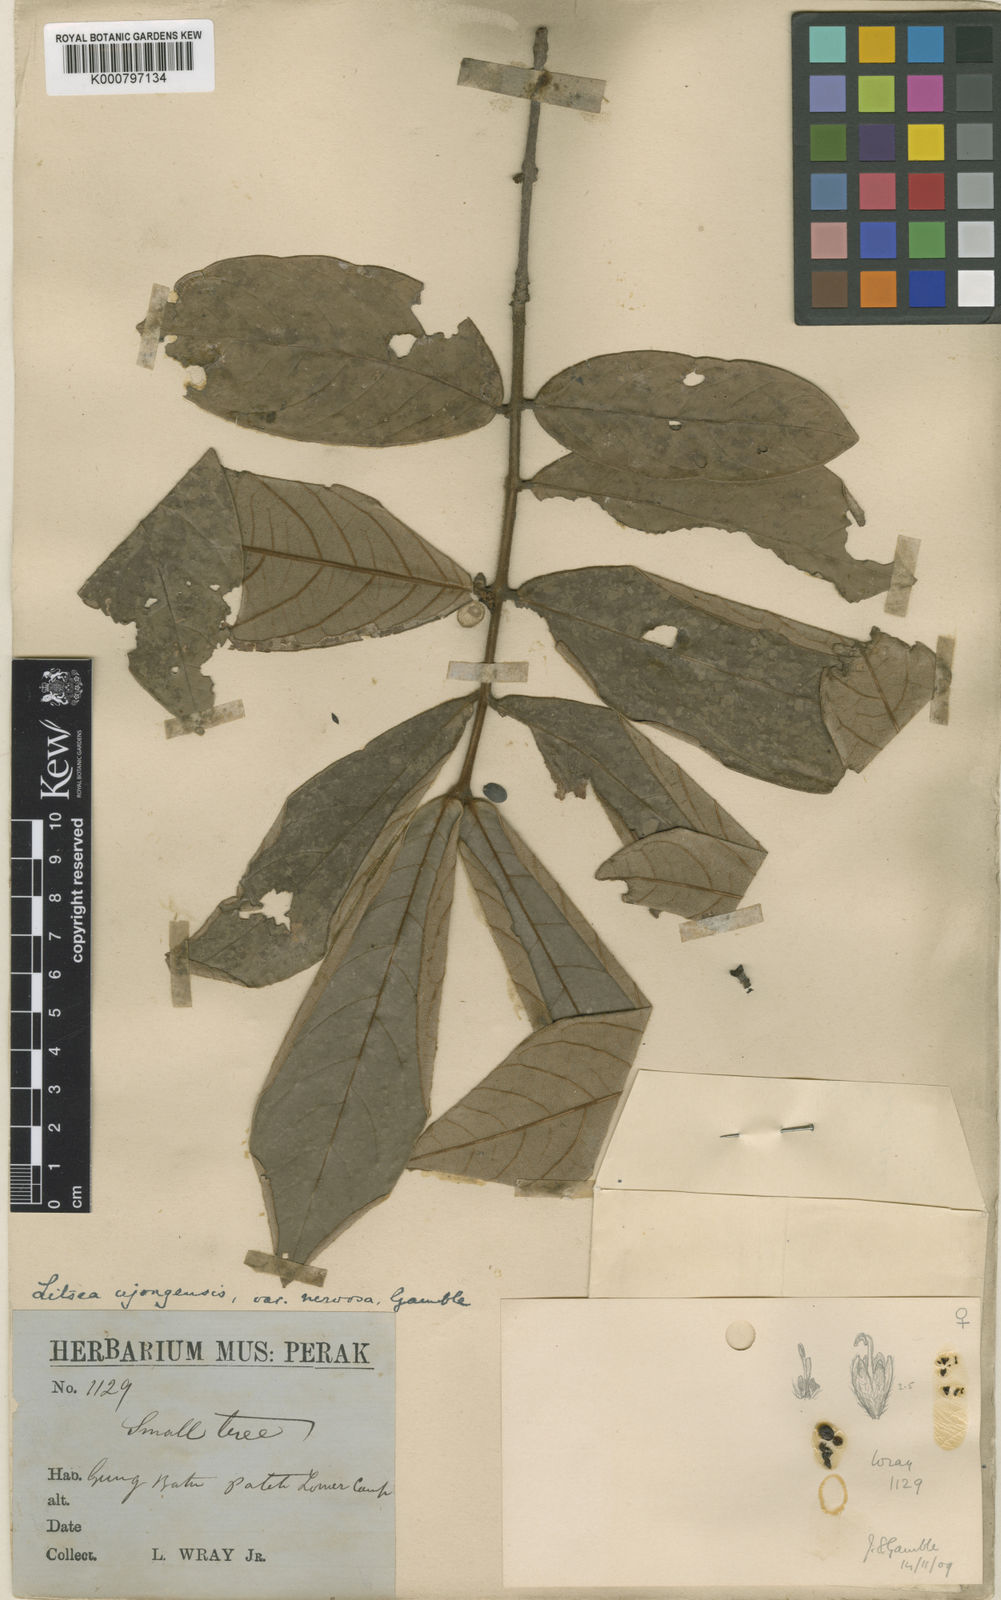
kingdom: Plantae
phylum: Tracheophyta
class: Magnoliopsida
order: Laurales
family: Lauraceae
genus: Litsea
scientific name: Litsea sessiliflora
